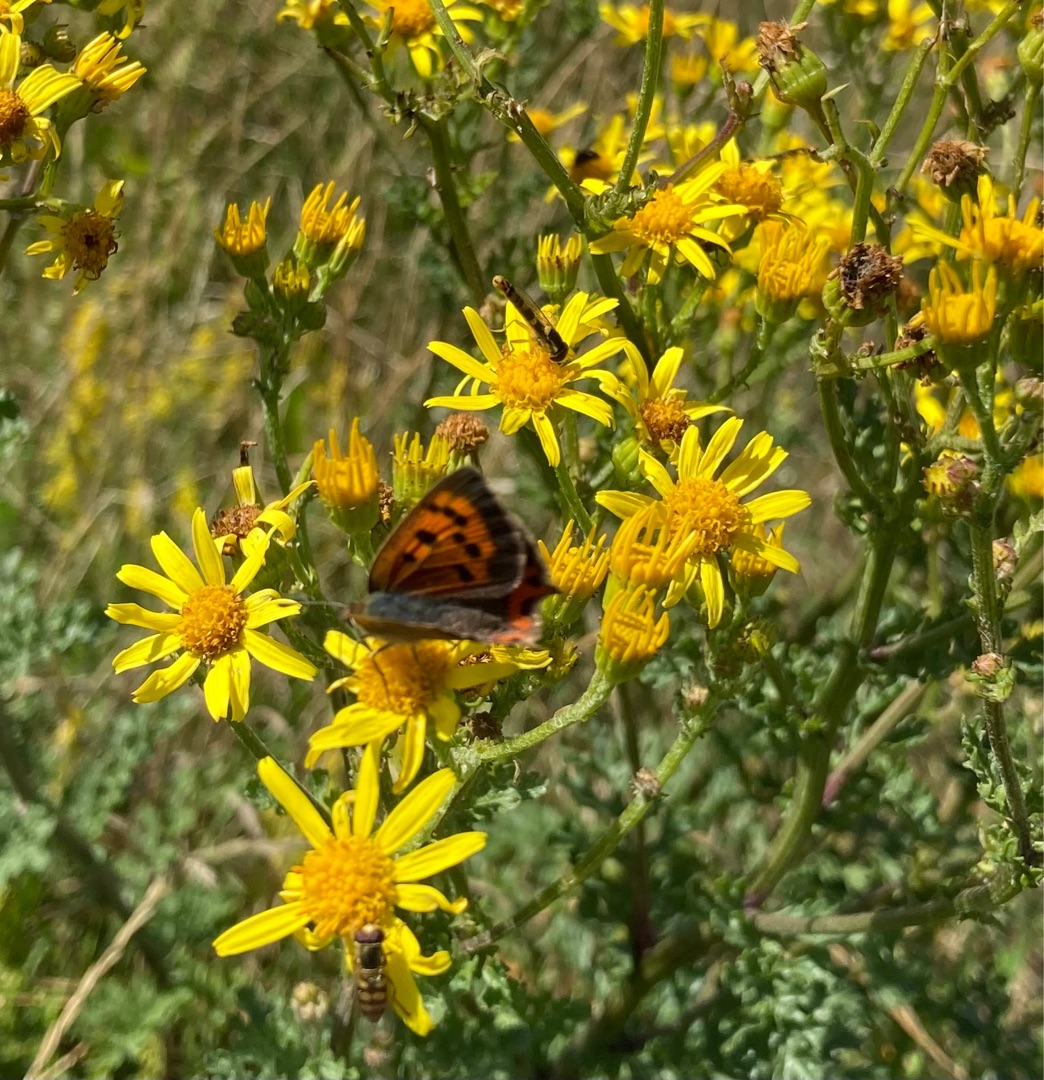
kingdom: Animalia
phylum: Arthropoda
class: Insecta
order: Lepidoptera
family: Lycaenidae
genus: Lycaena
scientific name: Lycaena phlaeas
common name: Lille ildfugl
